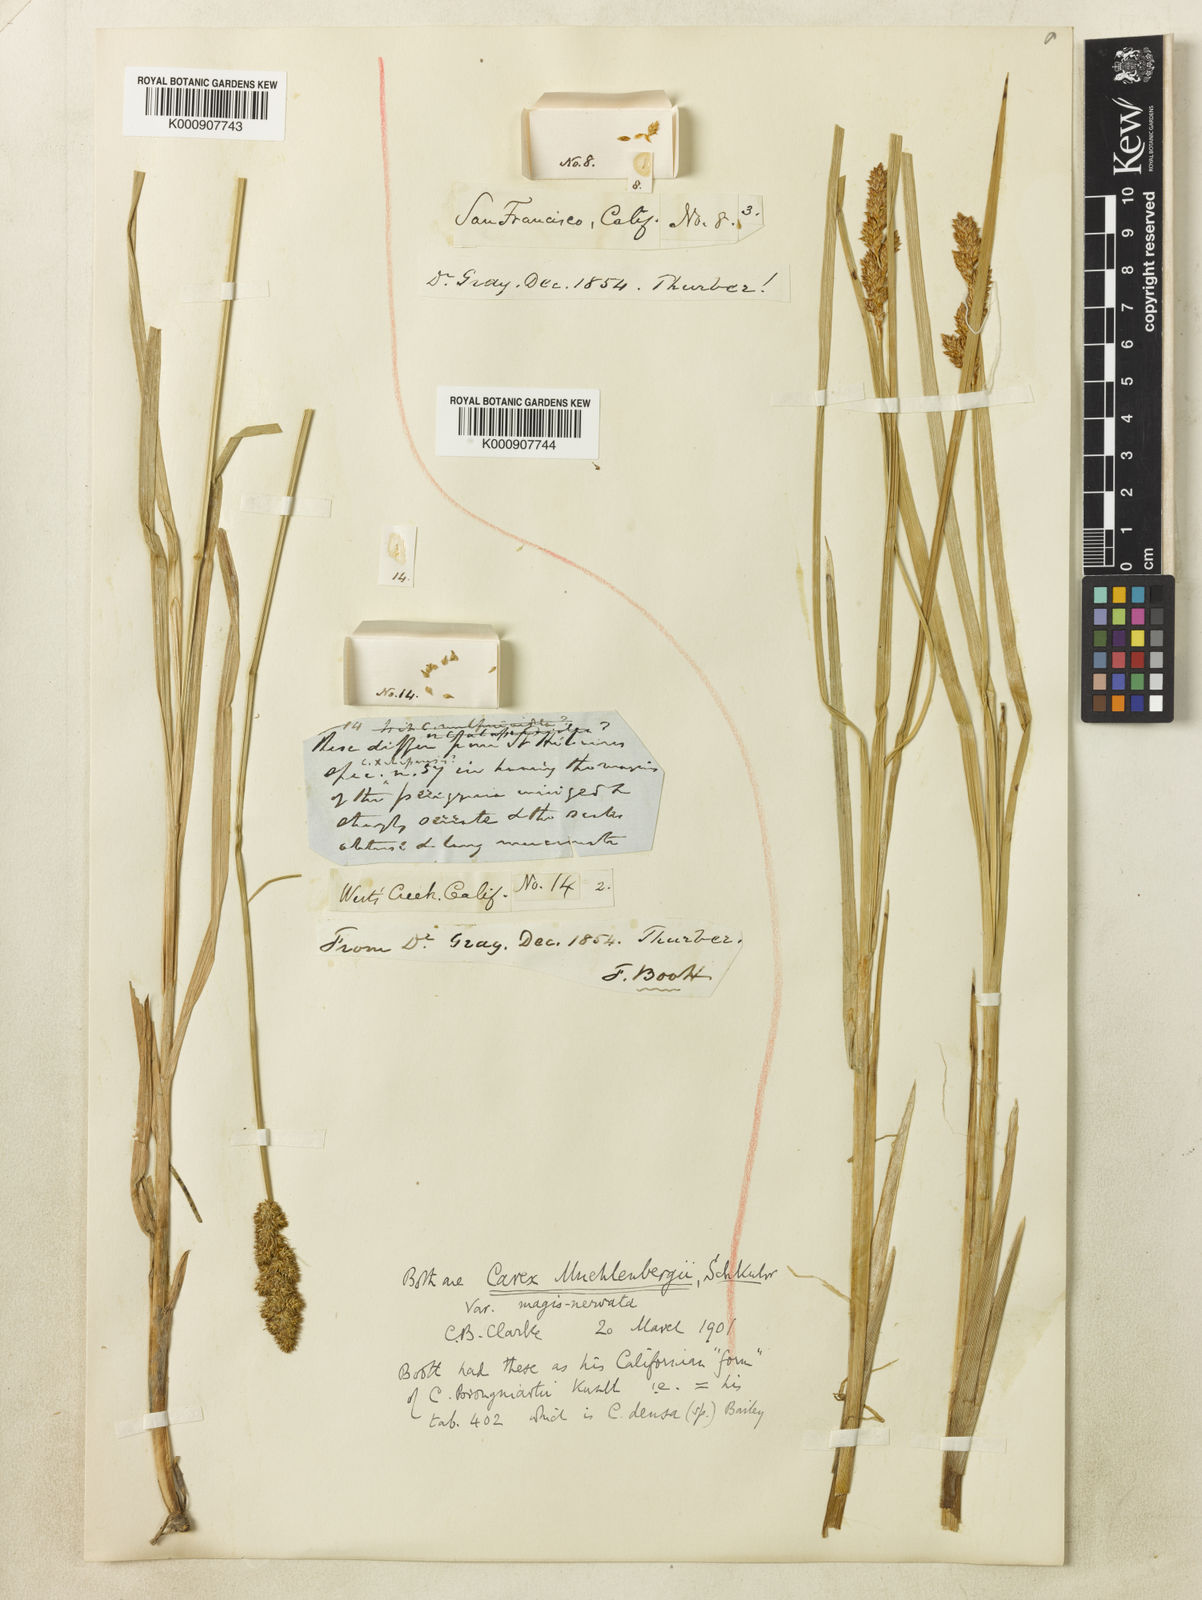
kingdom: Plantae
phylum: Tracheophyta
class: Liliopsida
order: Poales
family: Cyperaceae
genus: Carex
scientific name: Carex densa
